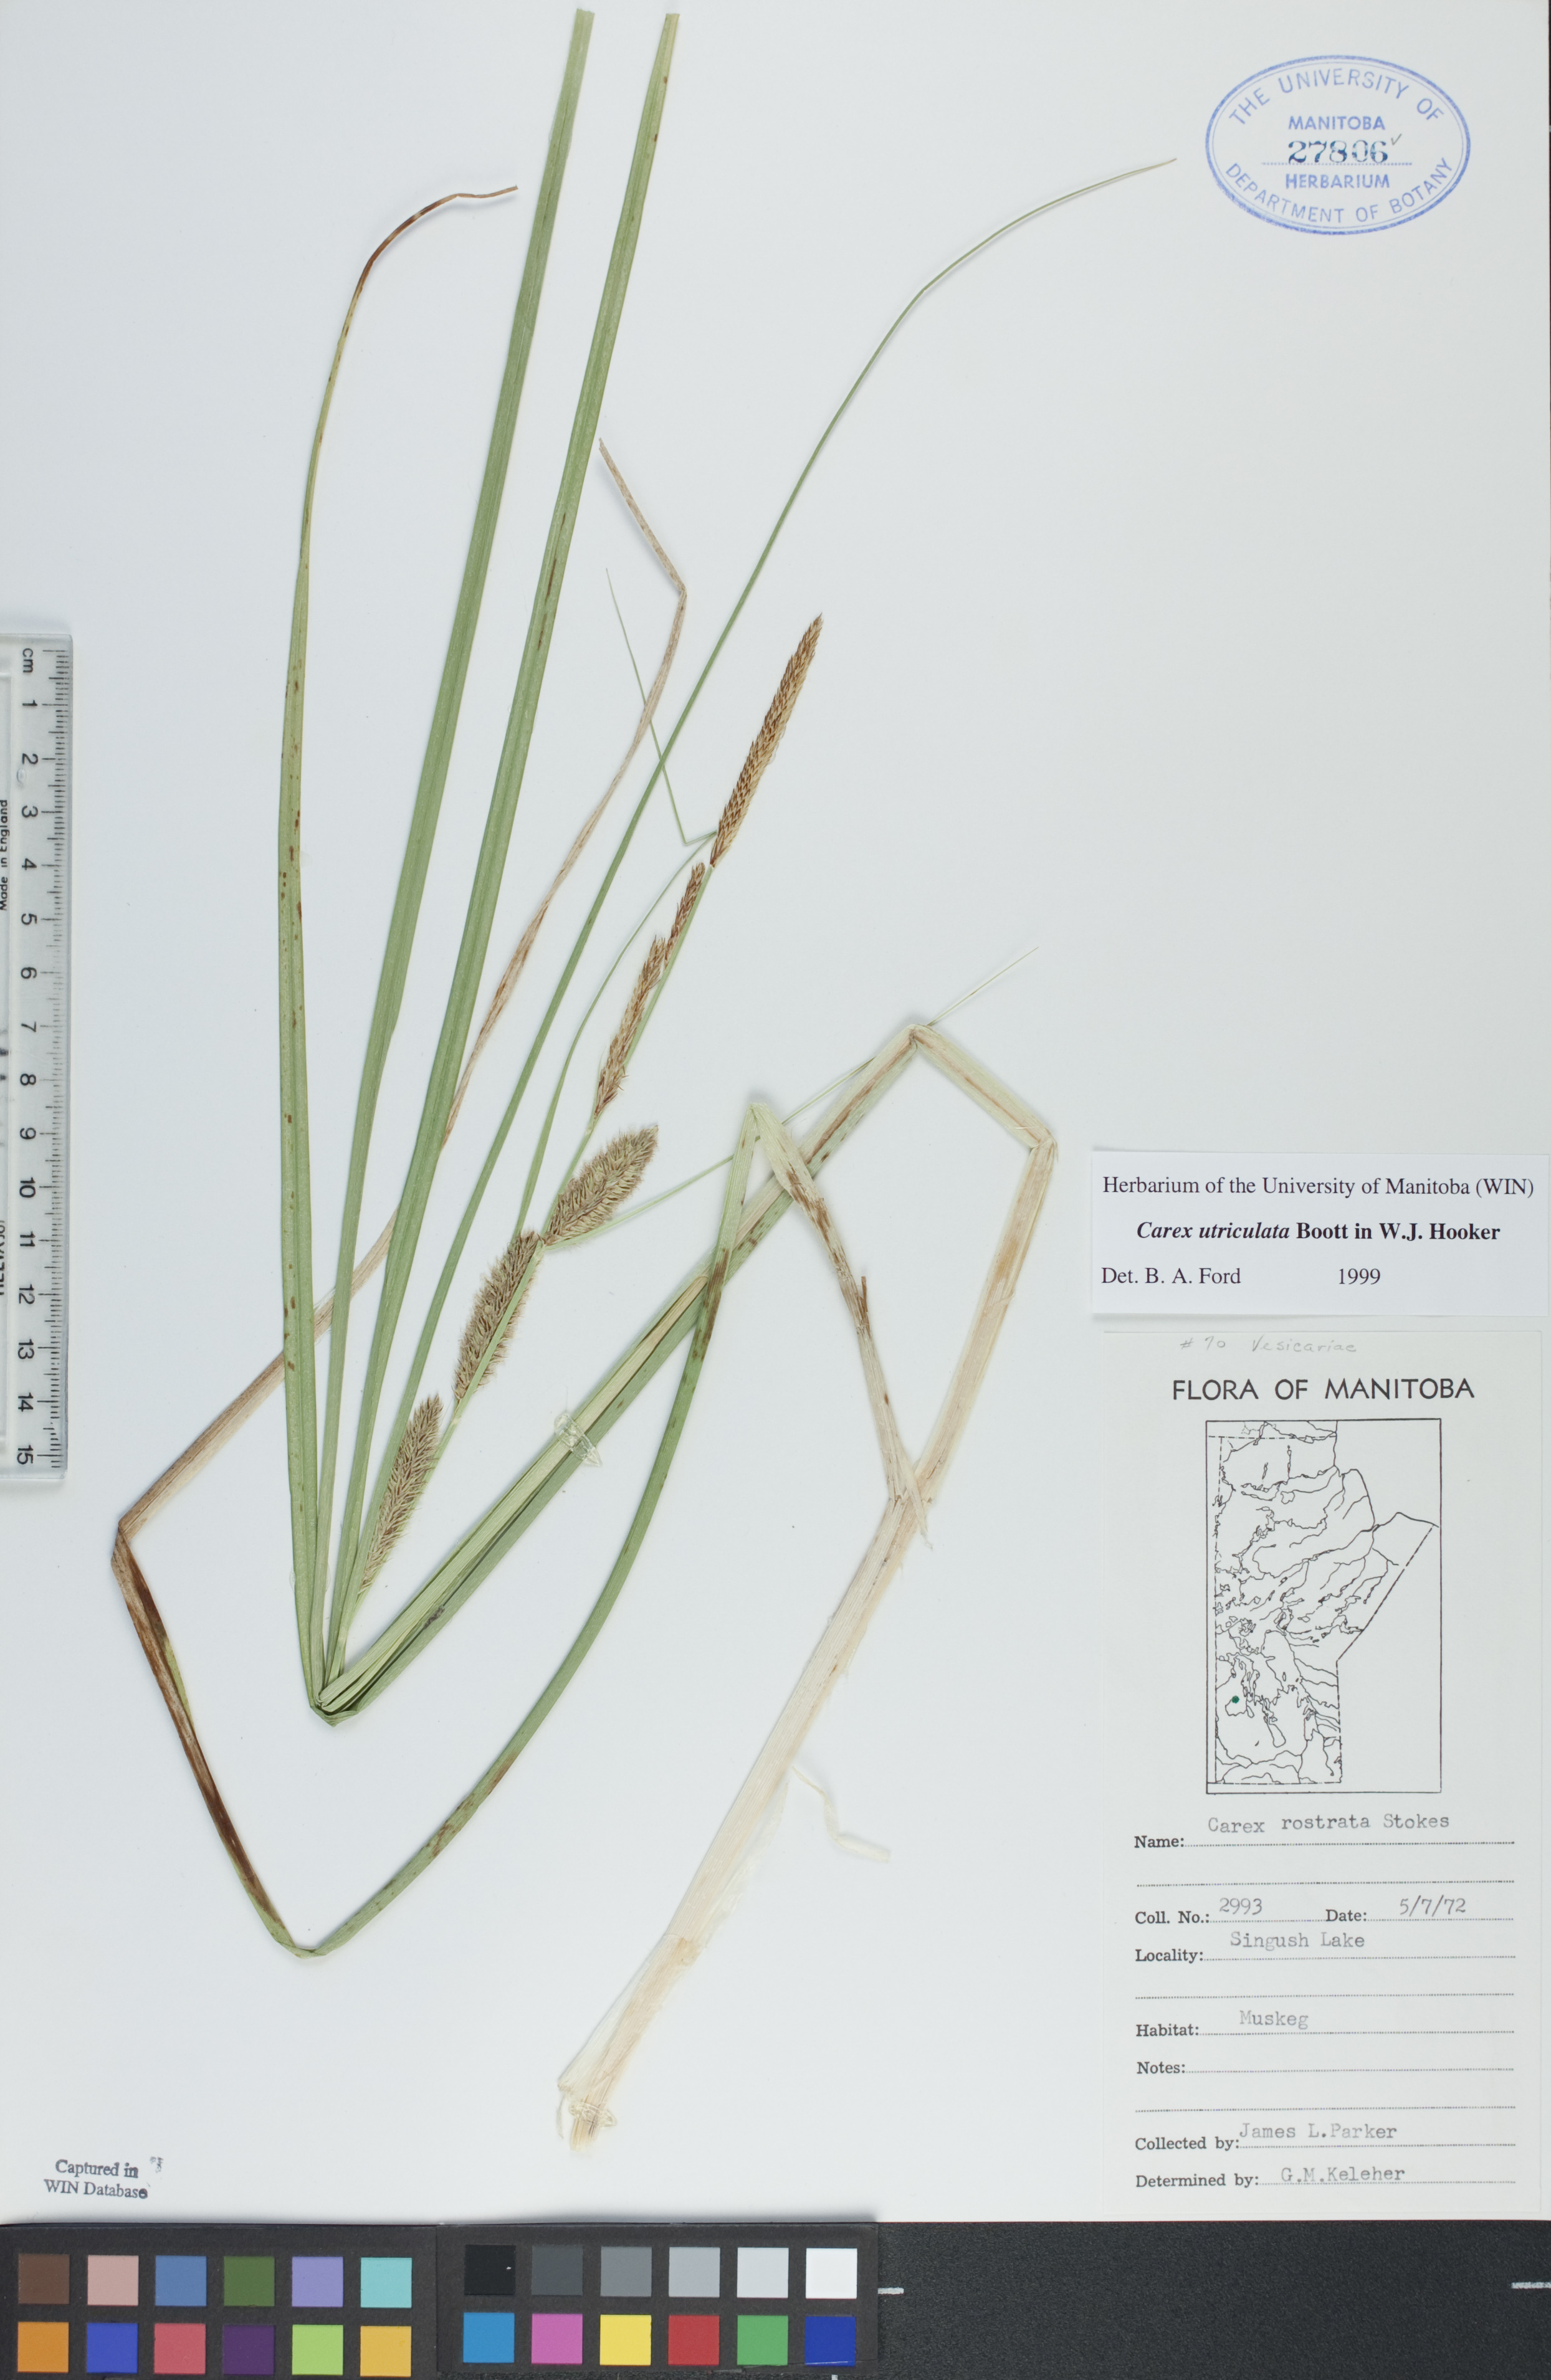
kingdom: Plantae
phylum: Tracheophyta
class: Liliopsida
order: Poales
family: Cyperaceae
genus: Carex
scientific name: Carex utriculata
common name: Beaked sedge
